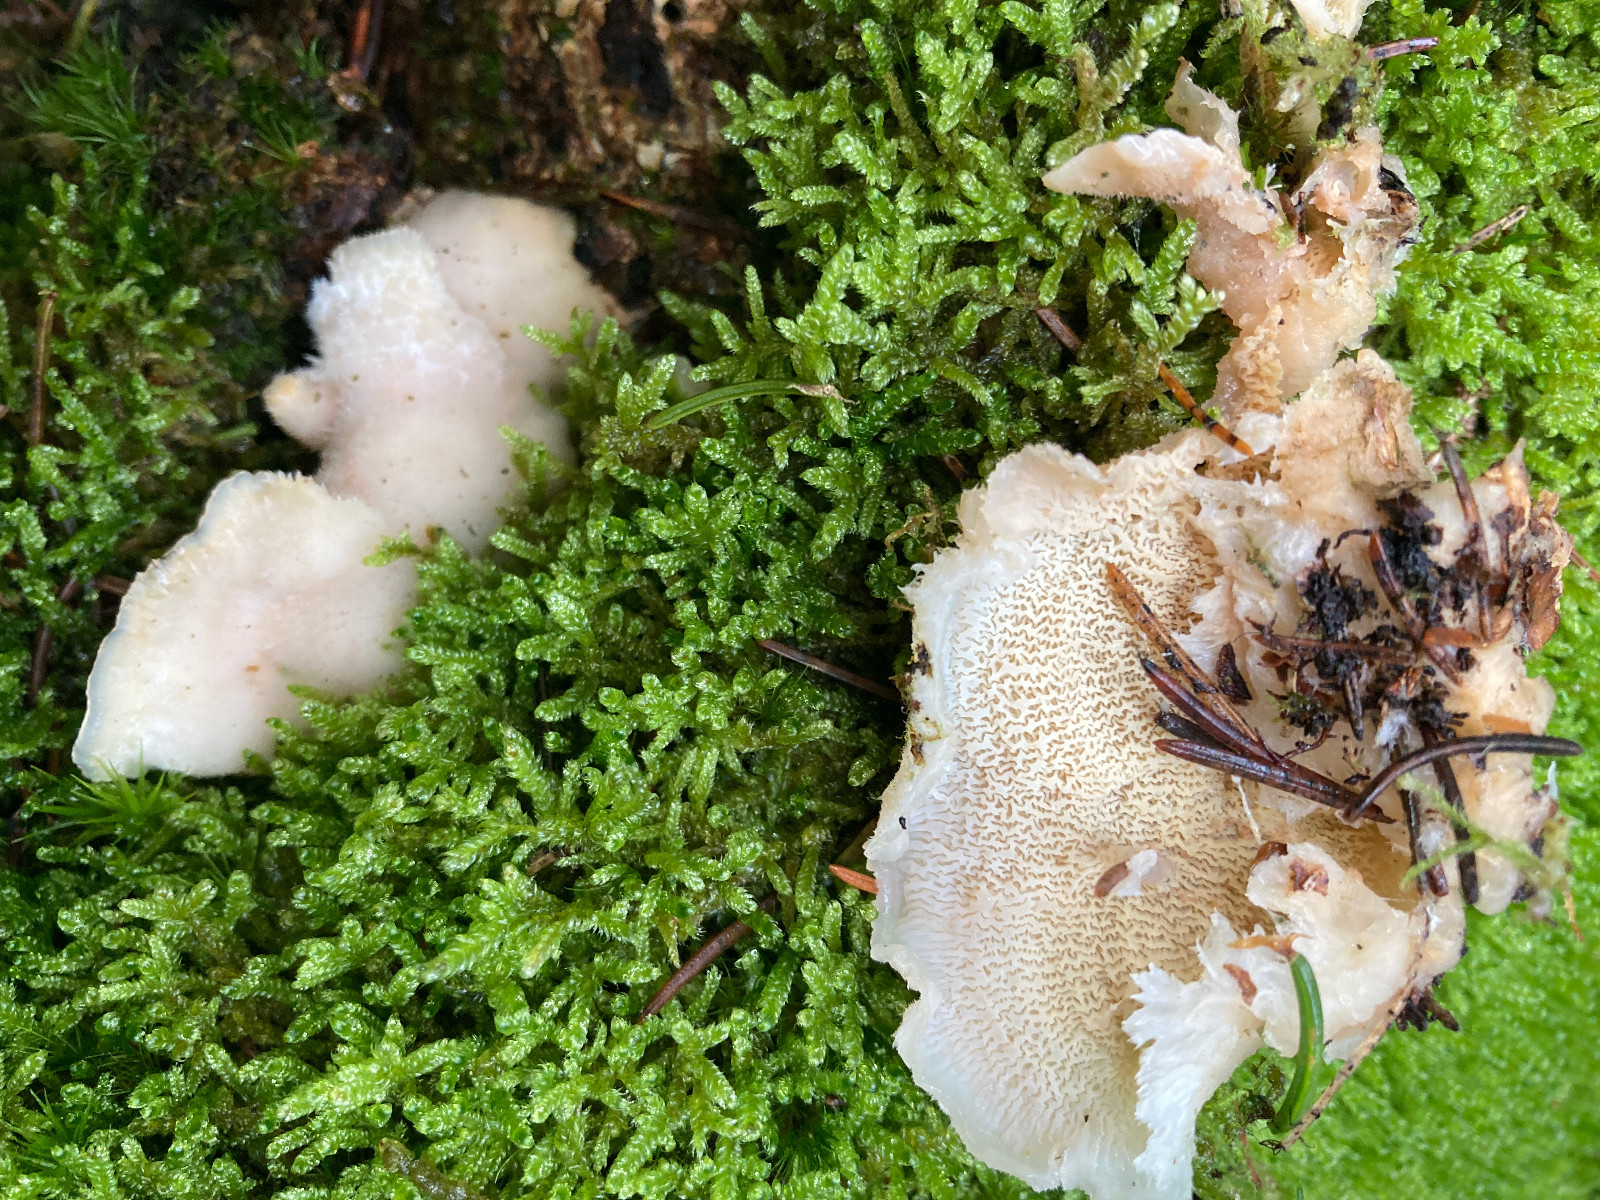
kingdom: Fungi
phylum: Basidiomycota
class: Agaricomycetes
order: Polyporales
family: Meruliaceae
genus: Phlebia
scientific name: Phlebia tremellosa
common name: bævrende åresvamp
